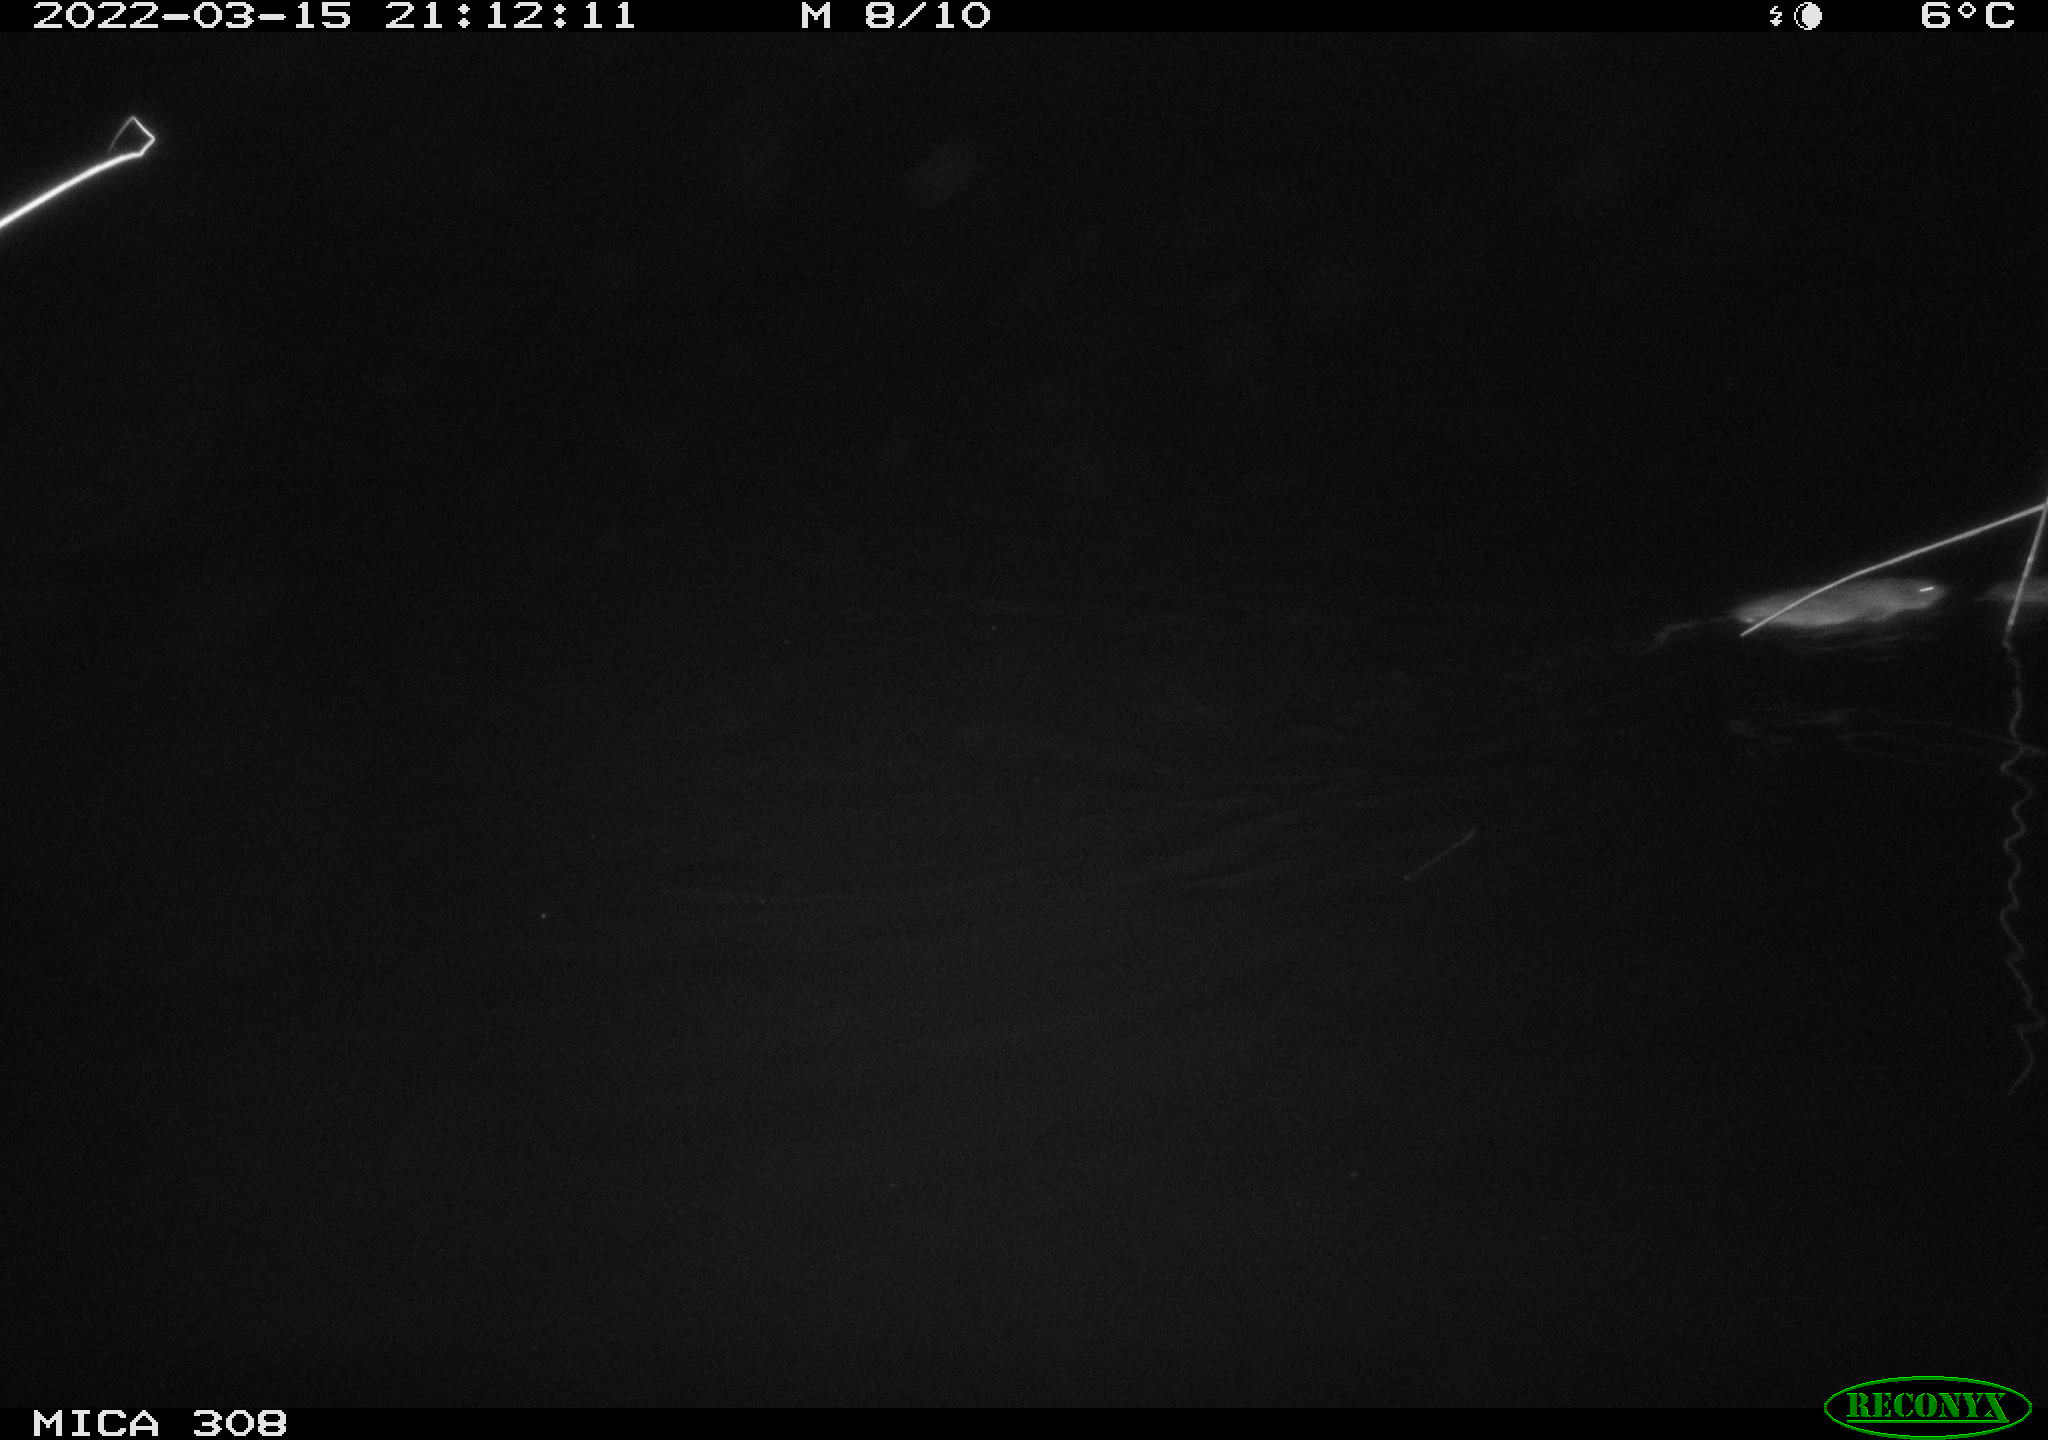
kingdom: Animalia
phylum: Chordata
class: Mammalia
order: Rodentia
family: Cricetidae
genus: Ondatra
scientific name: Ondatra zibethicus
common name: Muskrat
